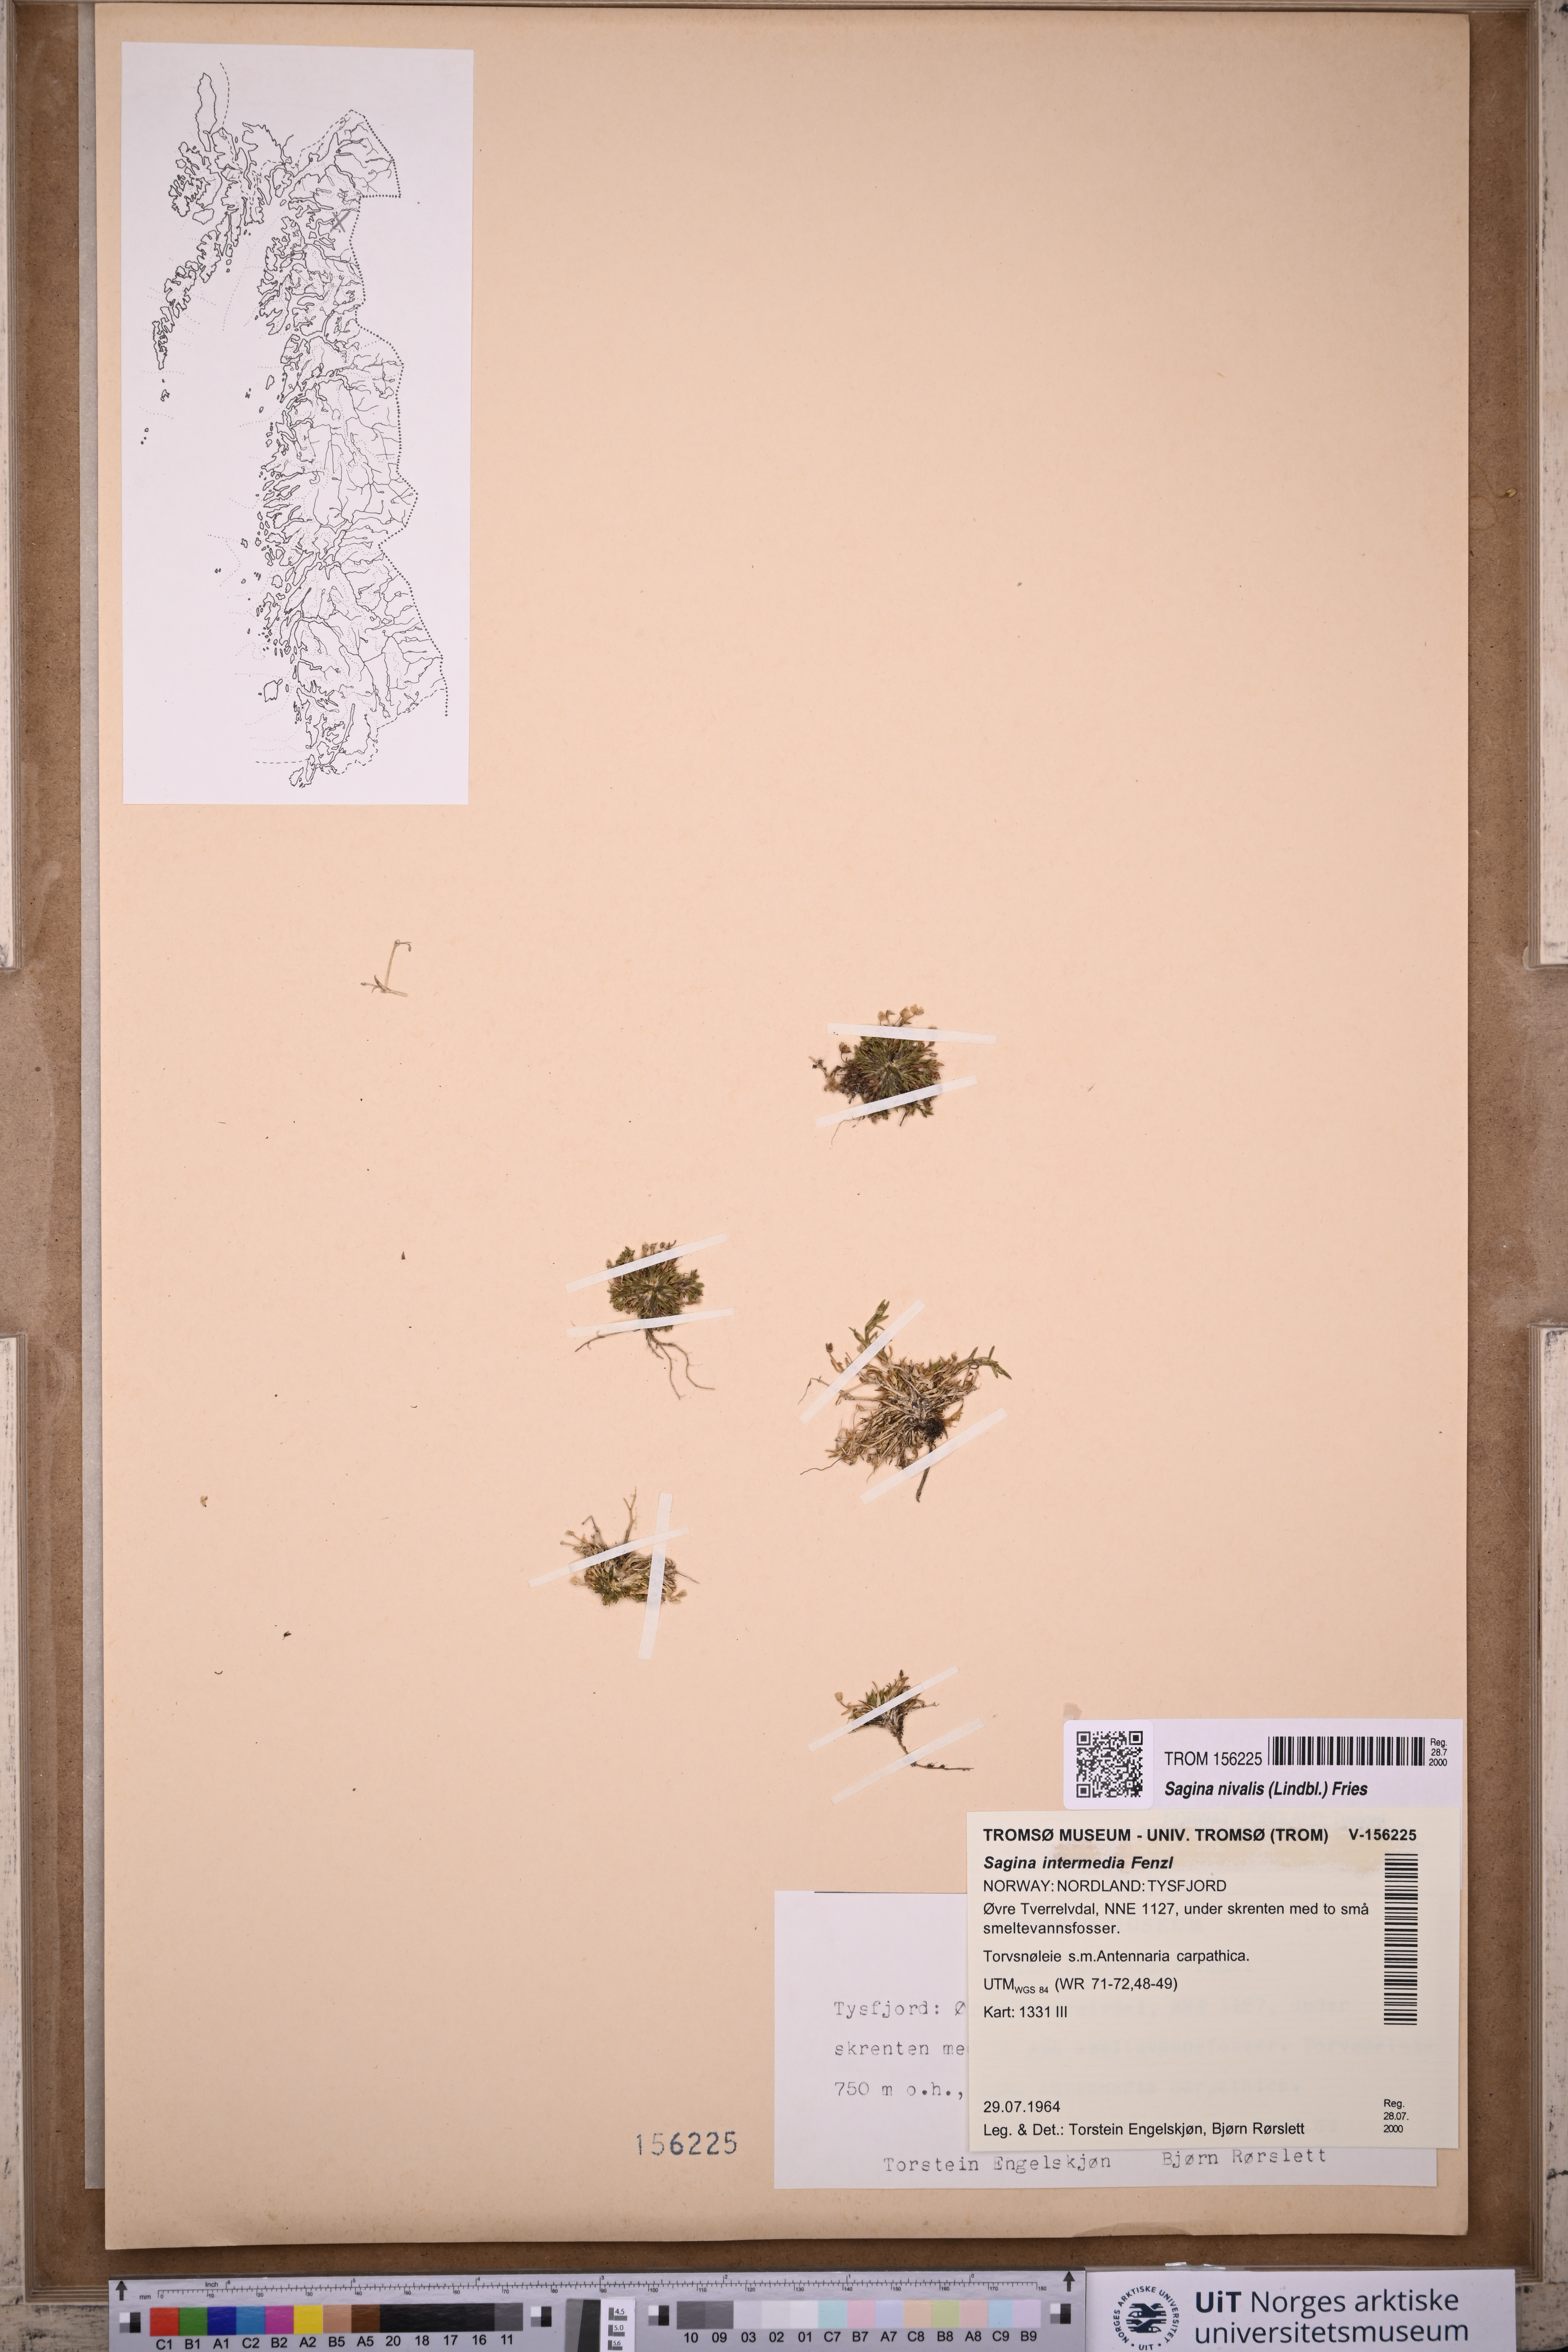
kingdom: Plantae
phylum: Tracheophyta
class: Magnoliopsida
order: Caryophyllales
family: Caryophyllaceae
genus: Sagina
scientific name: Sagina nivalis
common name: Snow pearlwort
